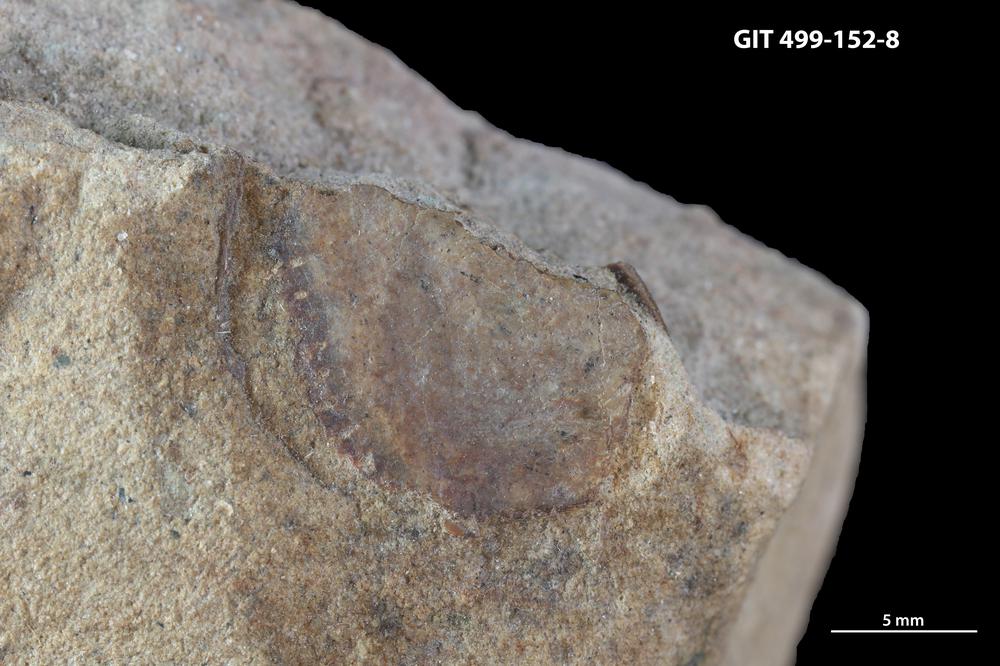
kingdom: Animalia
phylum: Chordata
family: Holoptychiidae
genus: Glyptolepis
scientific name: Glyptolepis
